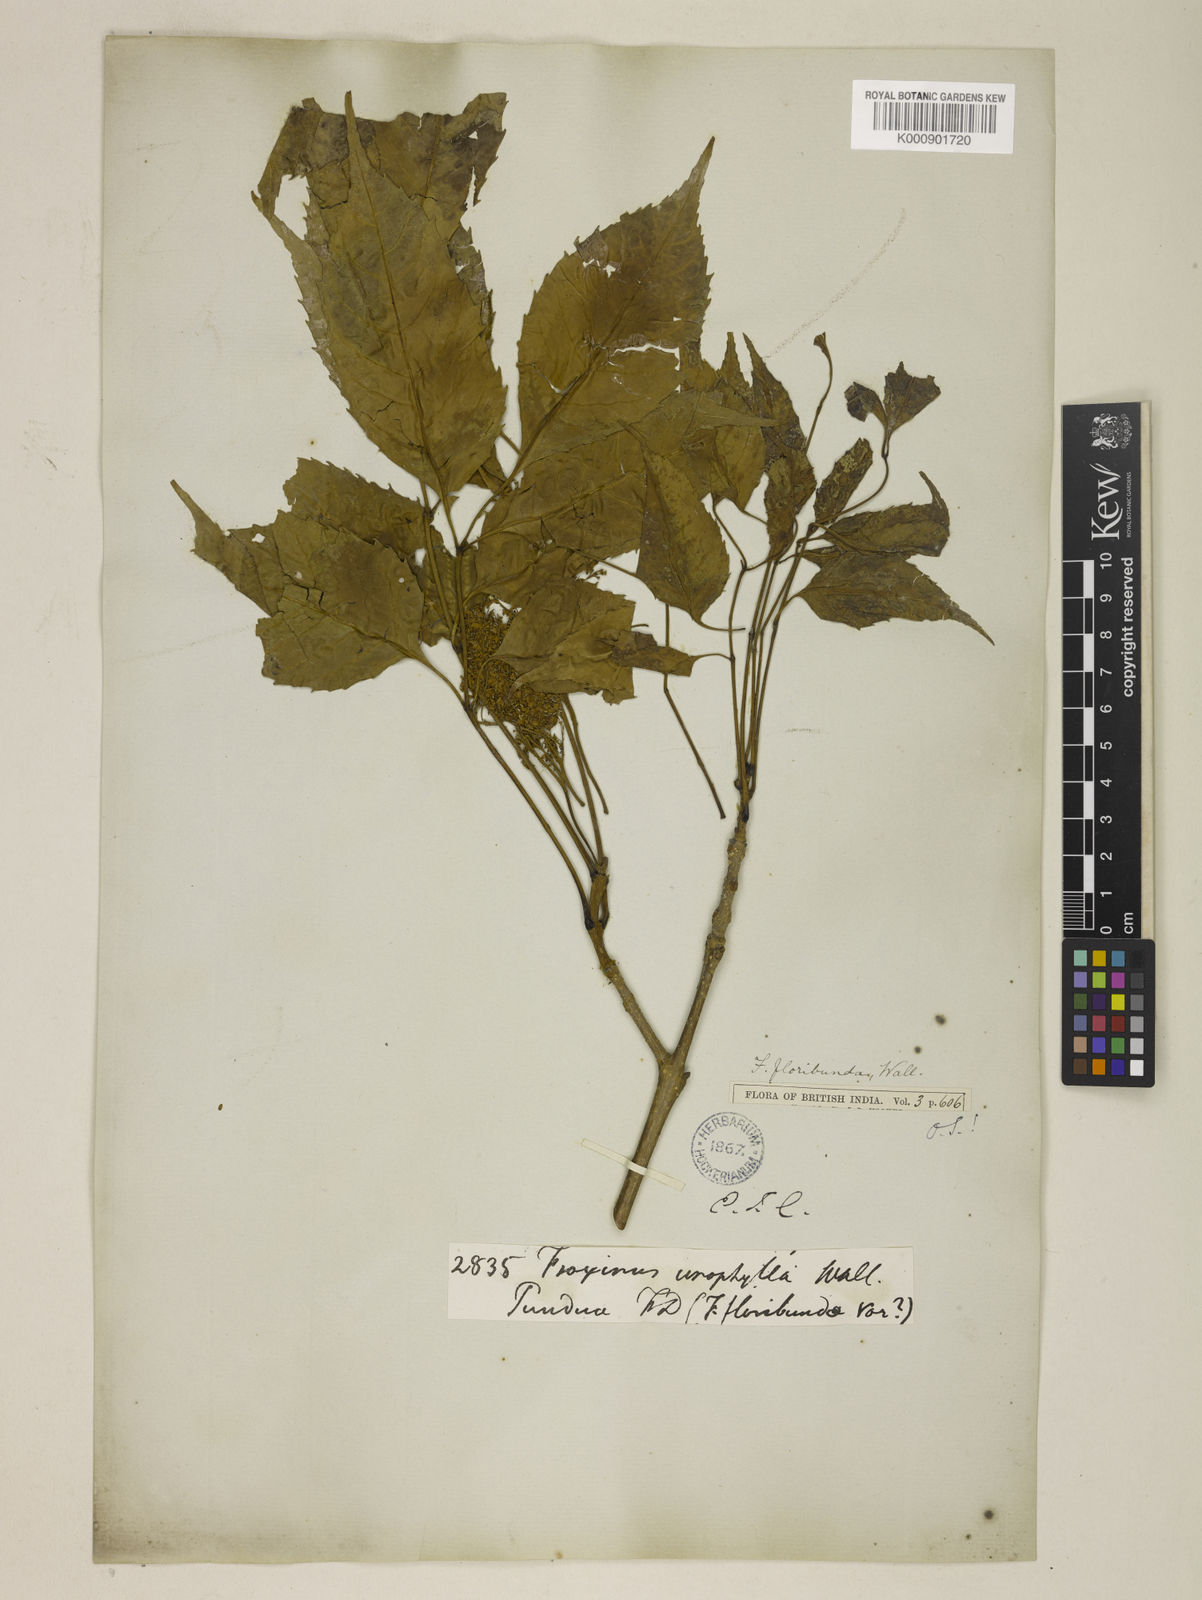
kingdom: Plantae
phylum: Tracheophyta
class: Magnoliopsida
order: Lamiales
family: Oleaceae
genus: Fraxinus
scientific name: Fraxinus floribunda
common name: East indian ash
